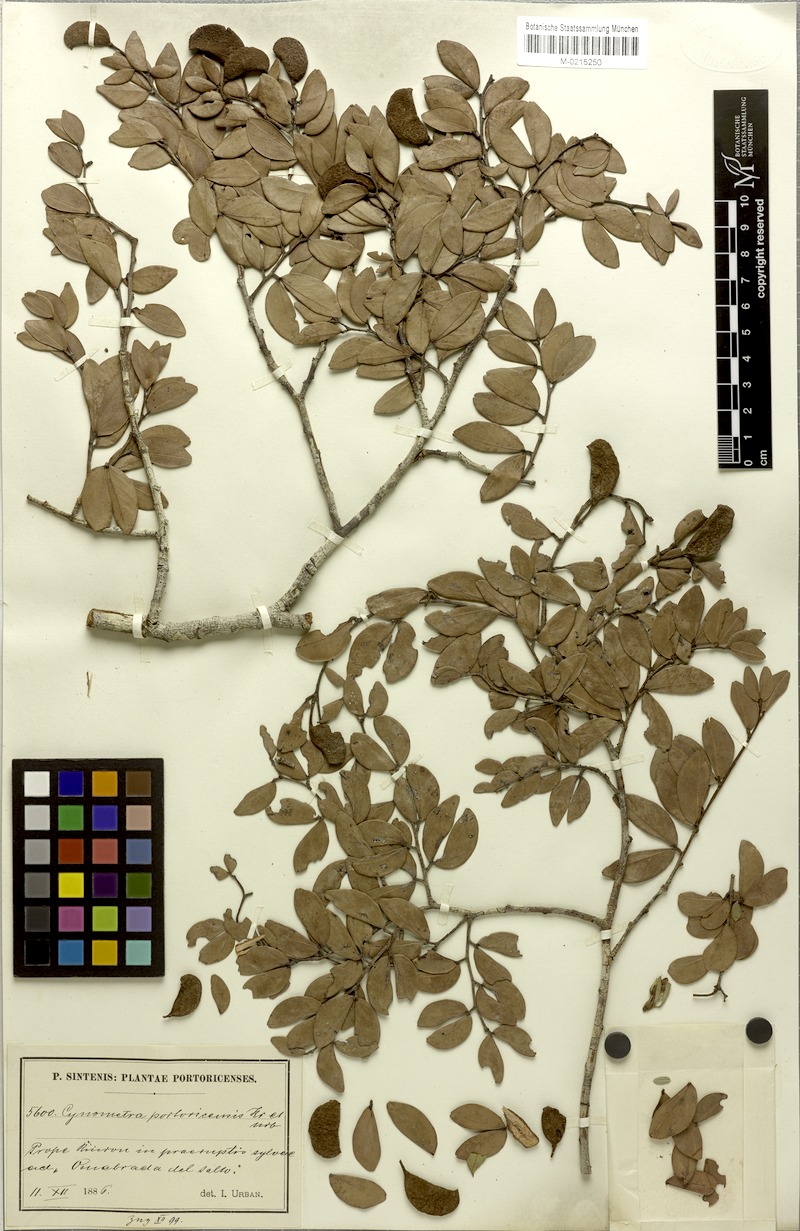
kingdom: Plantae
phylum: Tracheophyta
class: Magnoliopsida
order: Fabales
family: Fabaceae
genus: Cynometra
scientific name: Cynometra portoricensis
